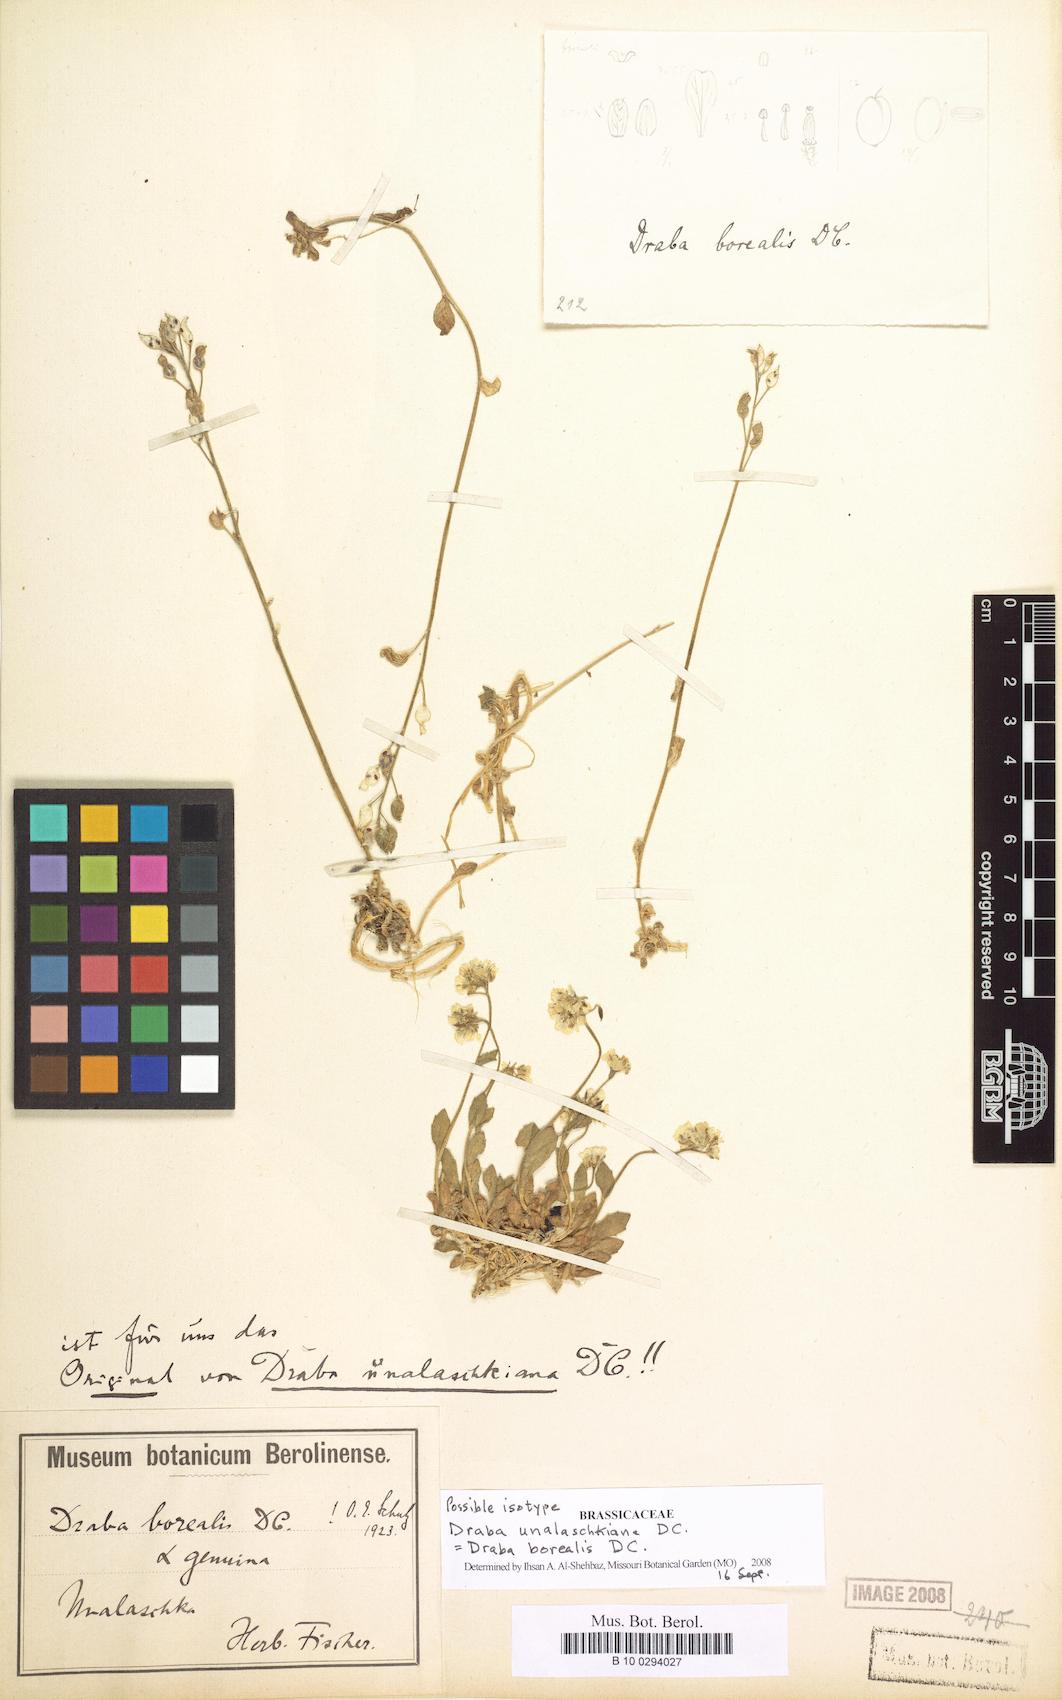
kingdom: Plantae
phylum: Tracheophyta
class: Magnoliopsida
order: Brassicales
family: Brassicaceae
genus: Draba
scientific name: Draba borealis
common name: Boreal draba
